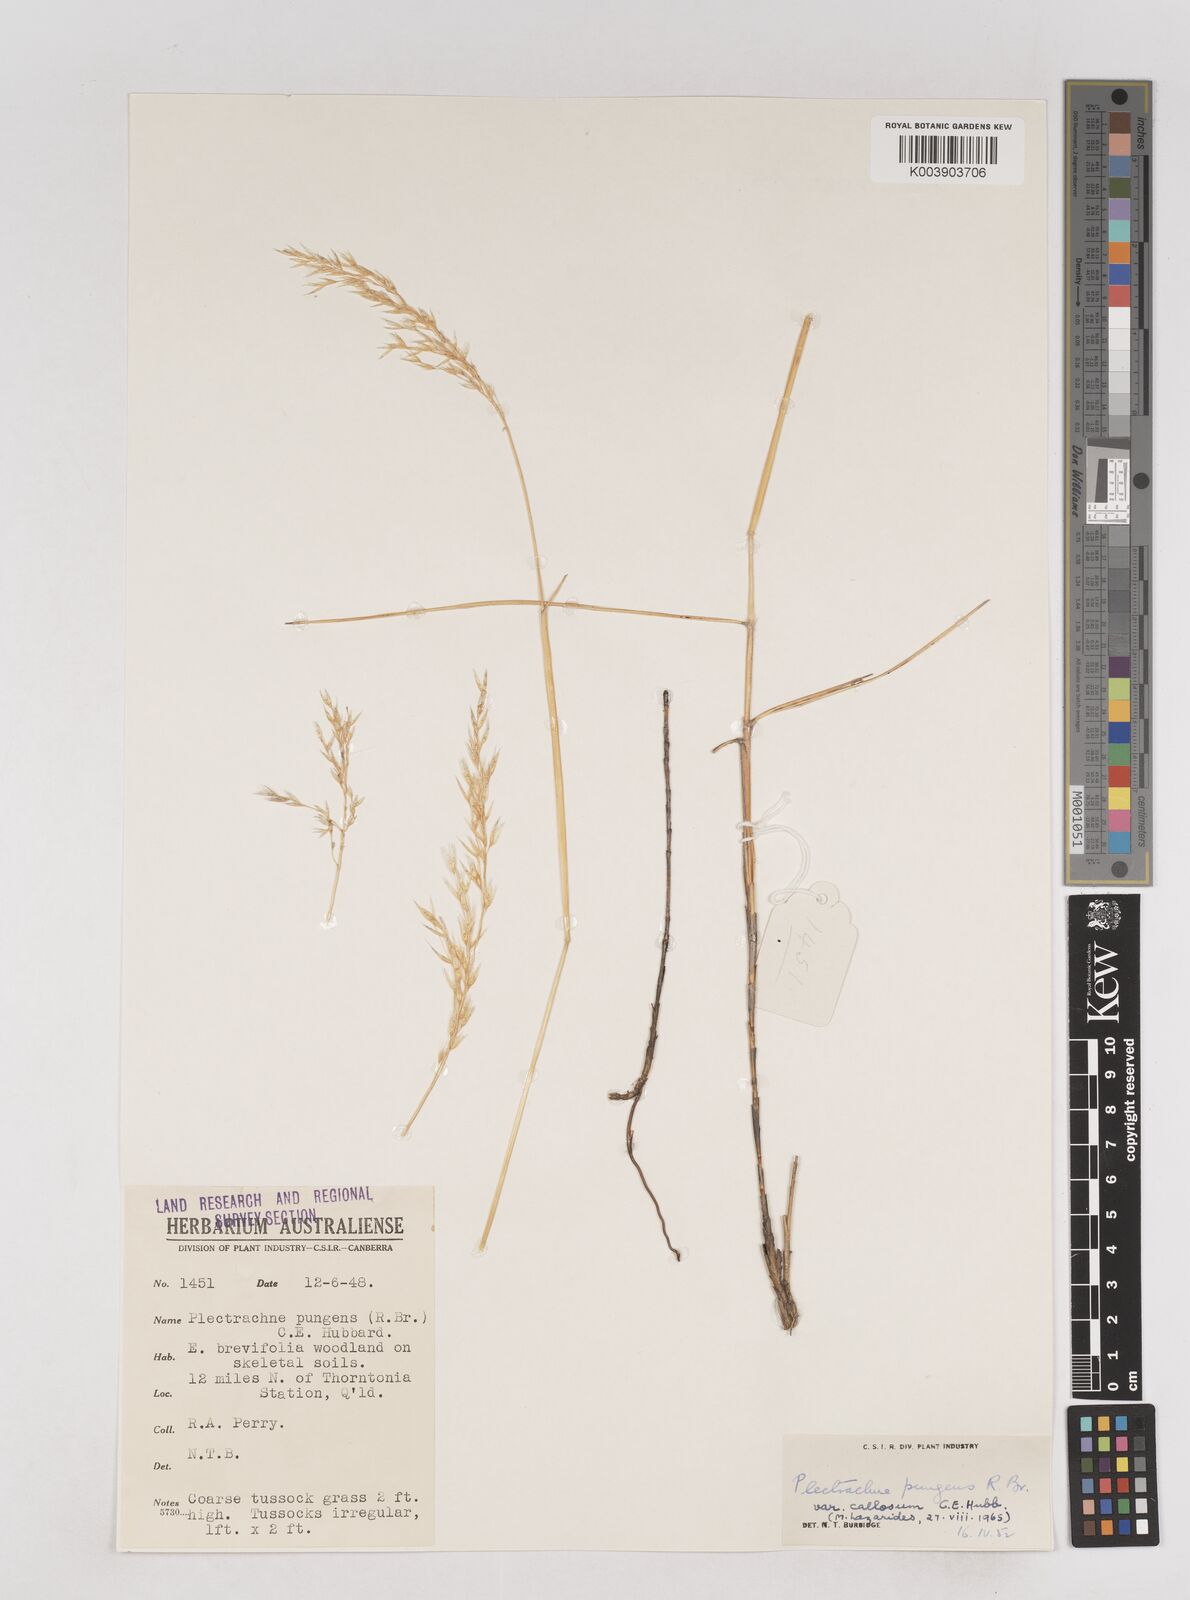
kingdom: Plantae
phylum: Tracheophyta
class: Liliopsida
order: Poales
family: Poaceae
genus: Triodia
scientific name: Triodia bitextura
